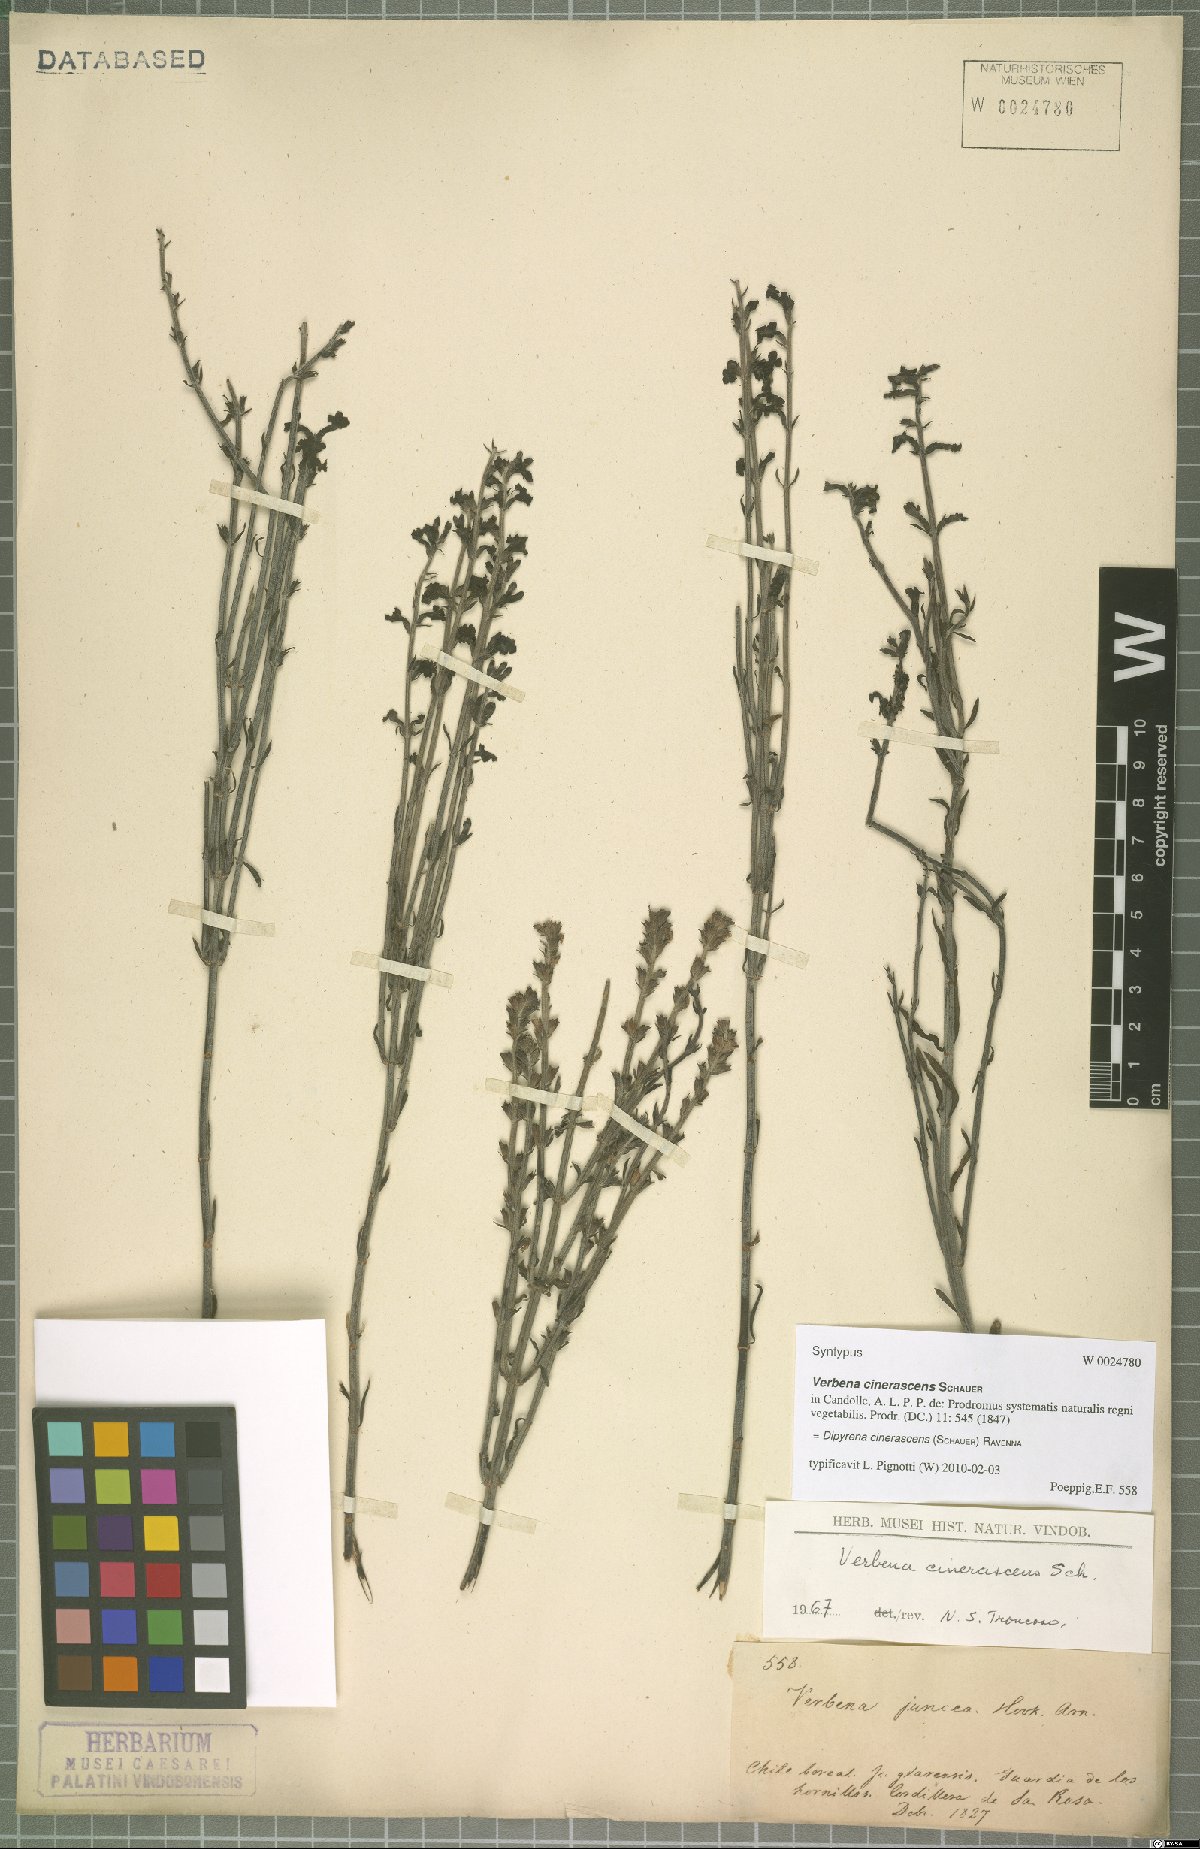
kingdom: Plantae
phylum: Tracheophyta
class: Magnoliopsida
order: Lamiales
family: Verbenaceae
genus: Mulguraea
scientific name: Mulguraea cinerascens
